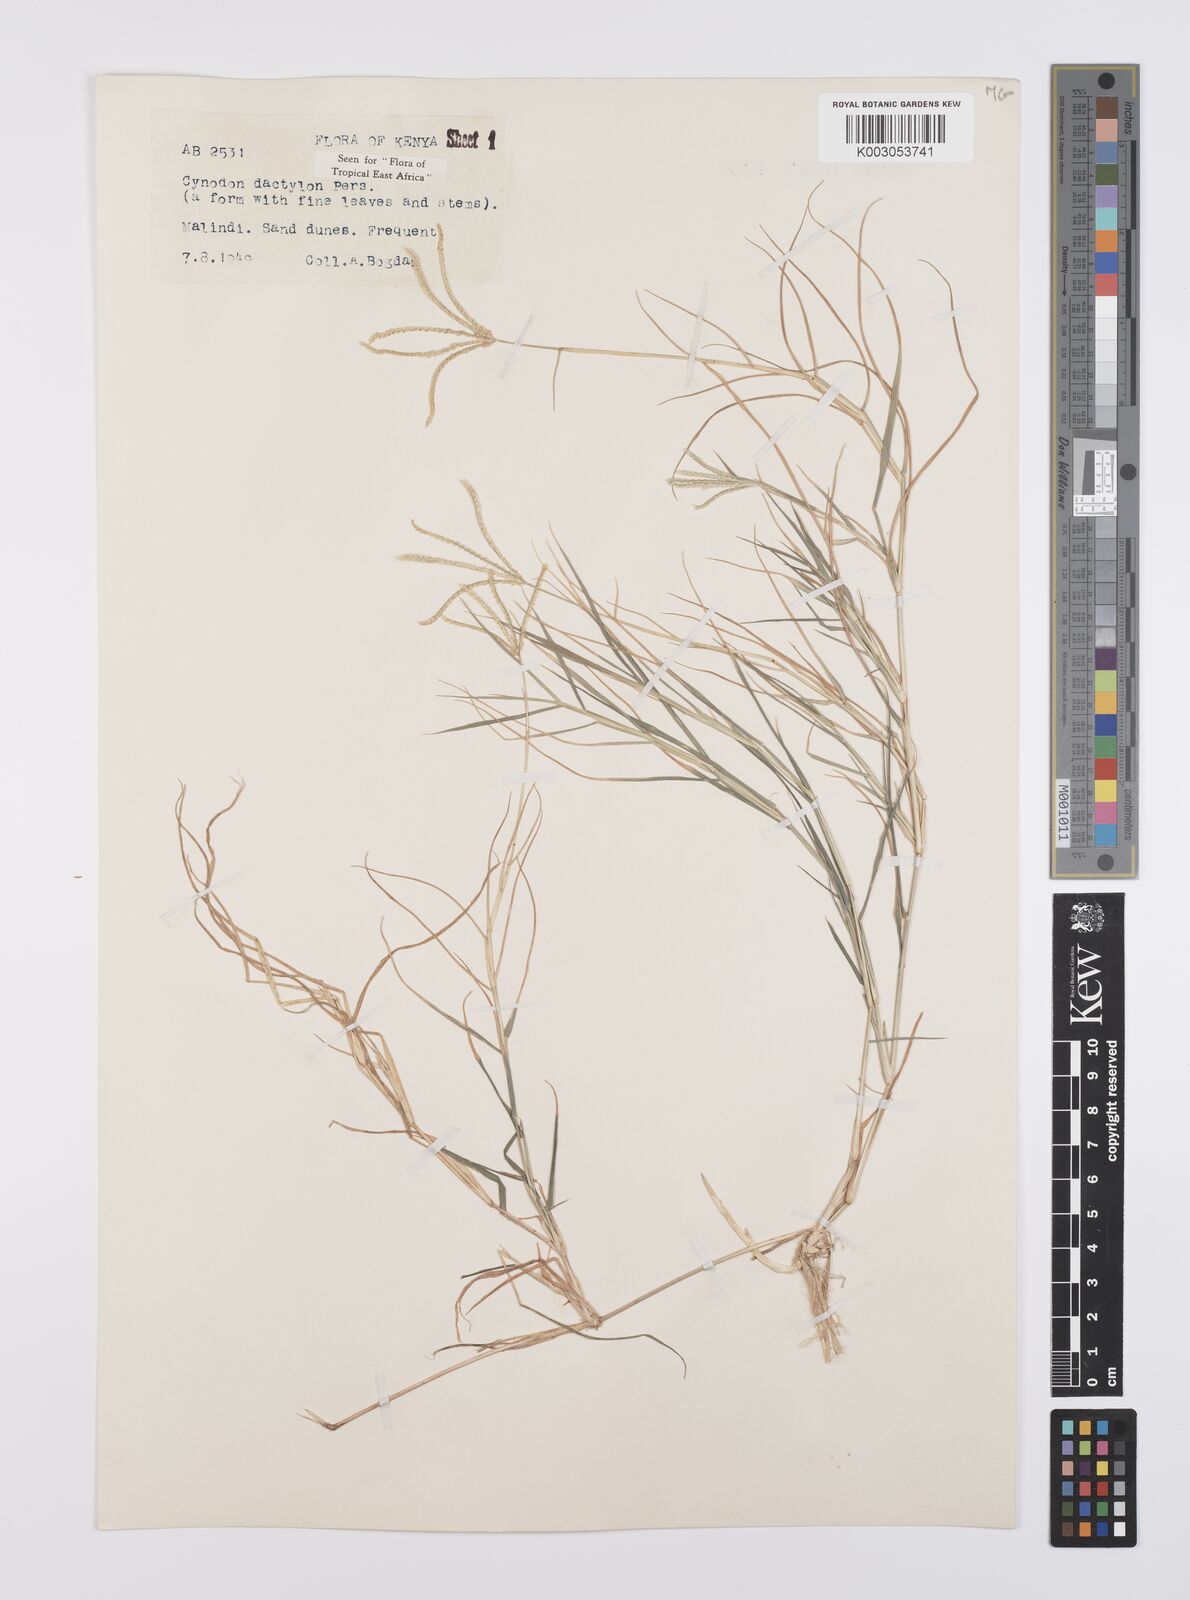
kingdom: Plantae
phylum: Tracheophyta
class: Liliopsida
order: Poales
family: Poaceae
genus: Cynodon
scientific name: Cynodon dactylon
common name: Bermuda grass
